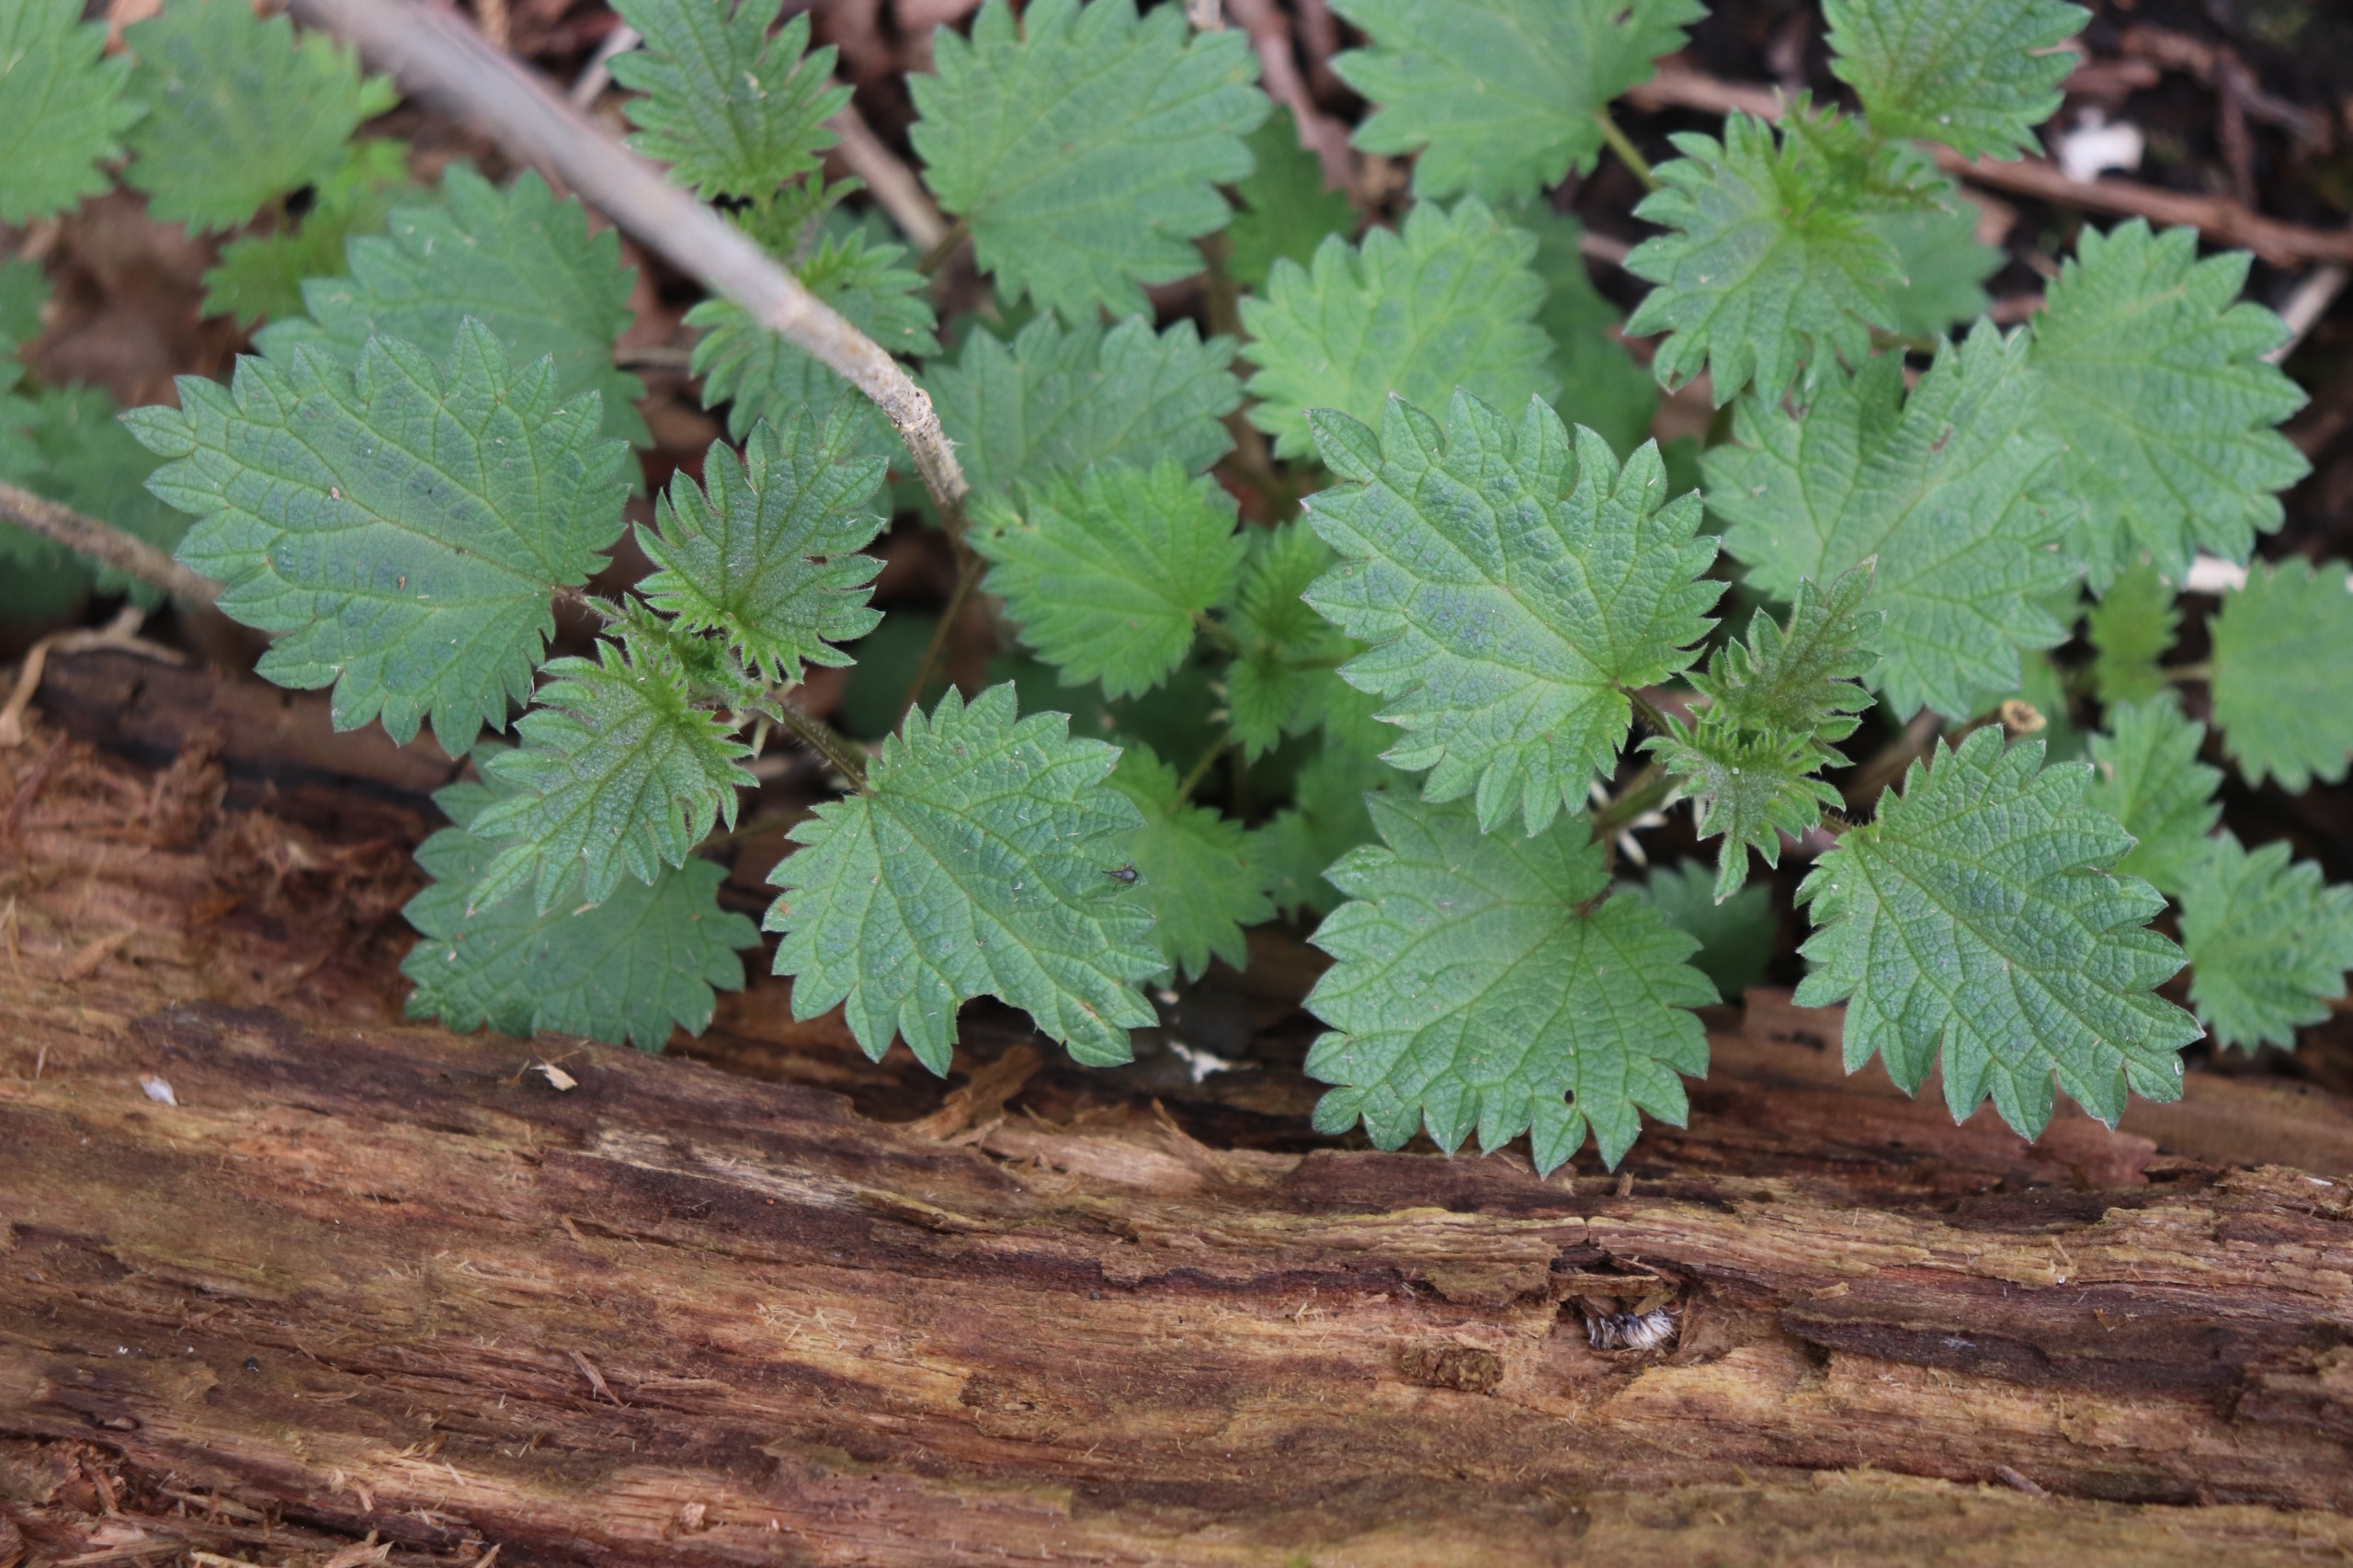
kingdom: Plantae
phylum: Tracheophyta
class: Magnoliopsida
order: Rosales
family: Urticaceae
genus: Urtica
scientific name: Urtica dioica
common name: Stor nælde
